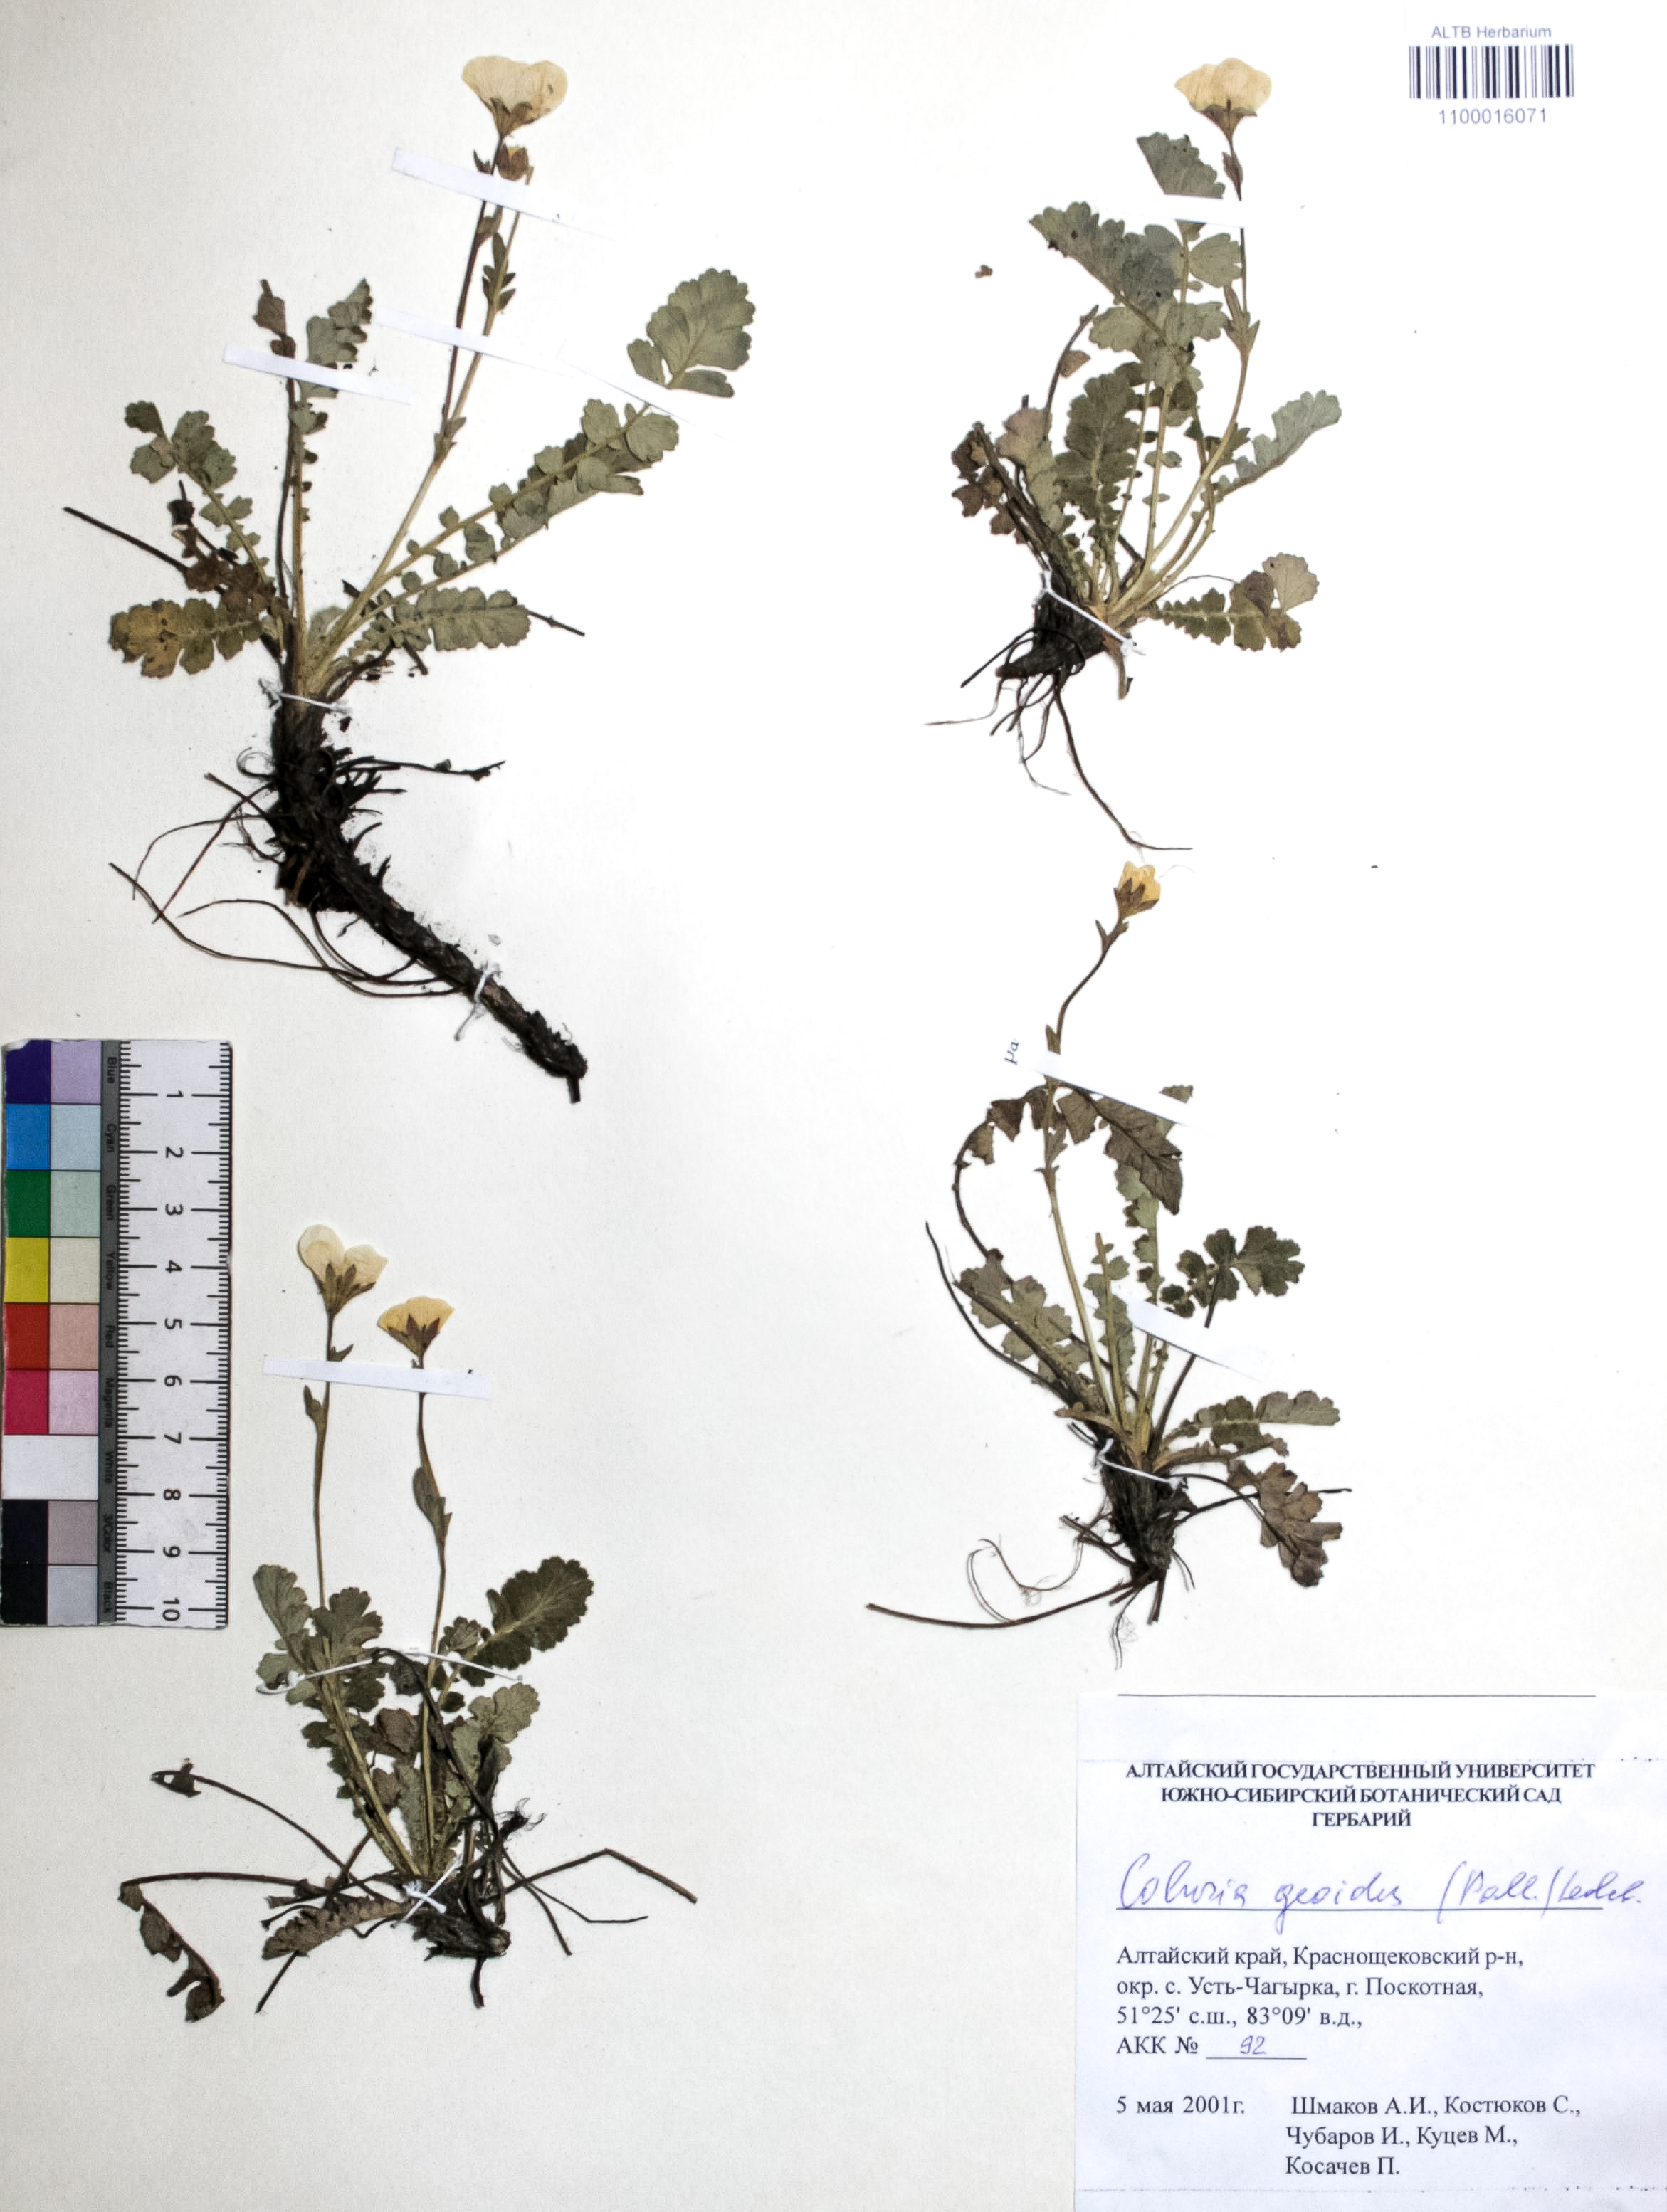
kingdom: Plantae
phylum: Tracheophyta
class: Magnoliopsida
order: Rosales
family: Rosaceae
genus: Geum
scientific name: Geum geoides
